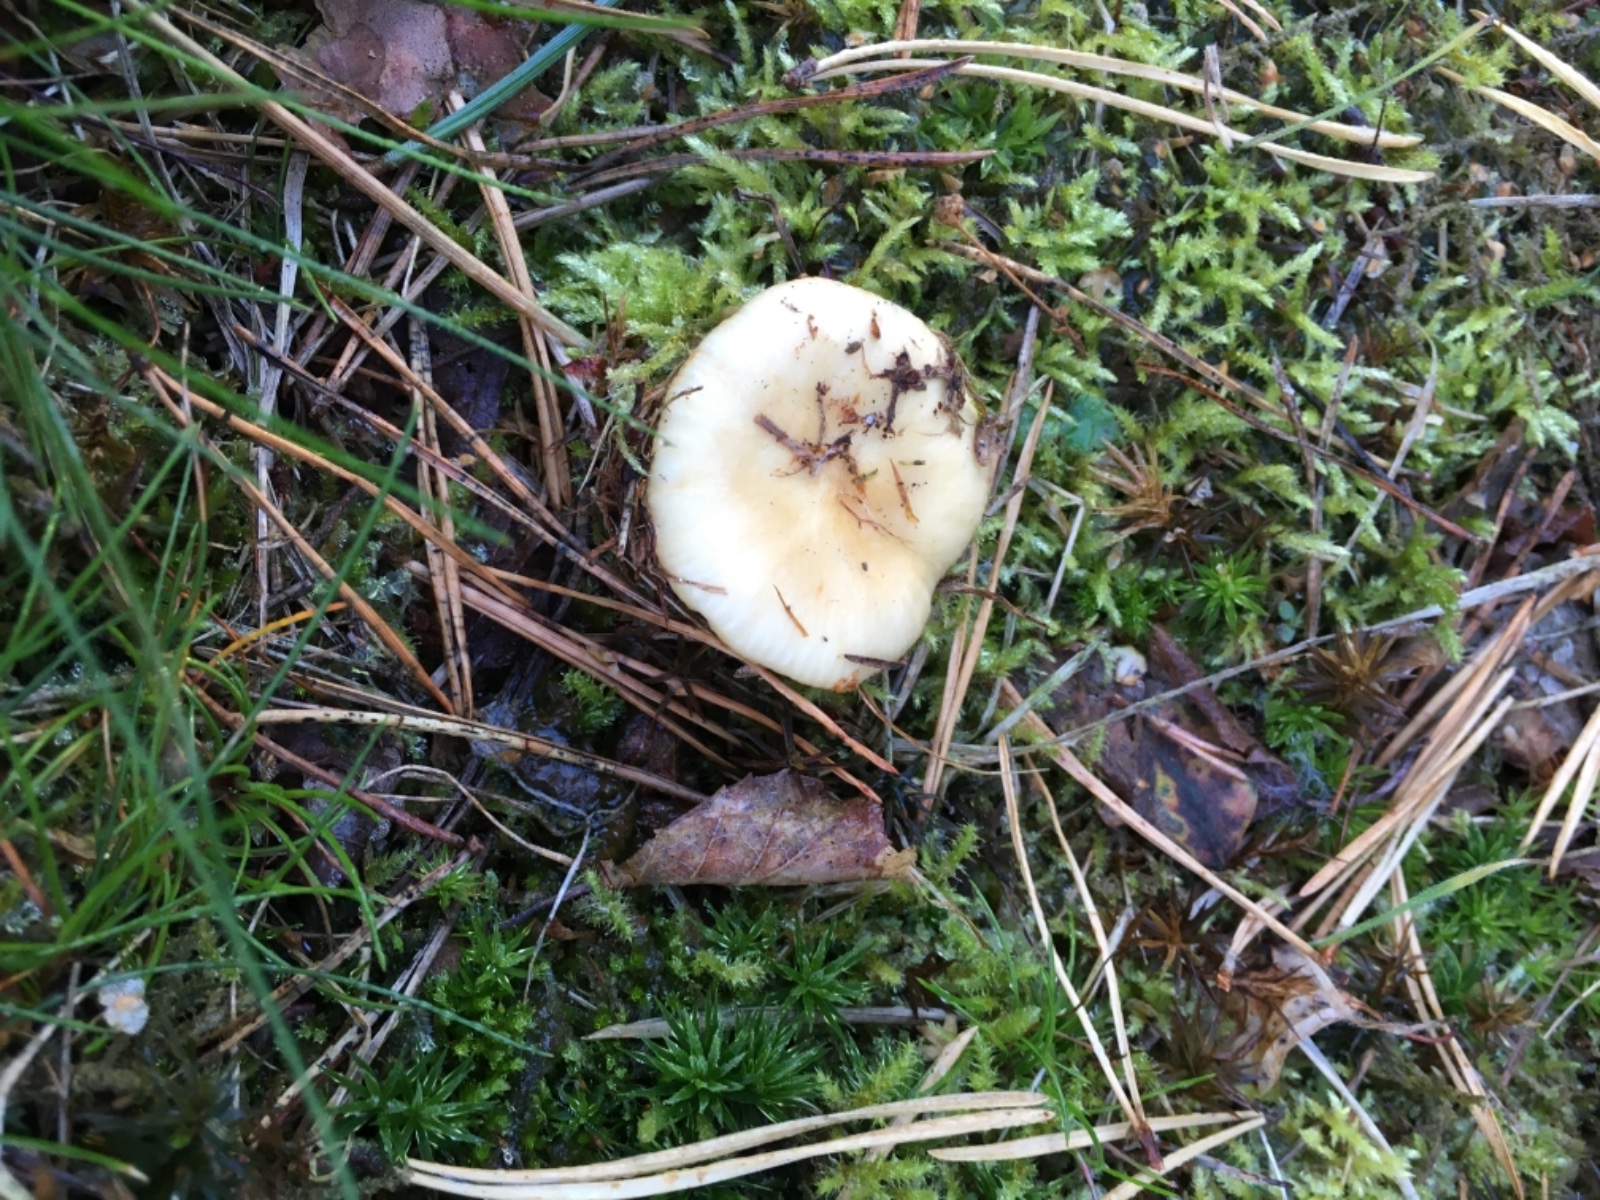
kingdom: Fungi
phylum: Basidiomycota
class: Agaricomycetes
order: Russulales
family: Russulaceae
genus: Russula
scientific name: Russula ochroleuca
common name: okkergul skørhat
